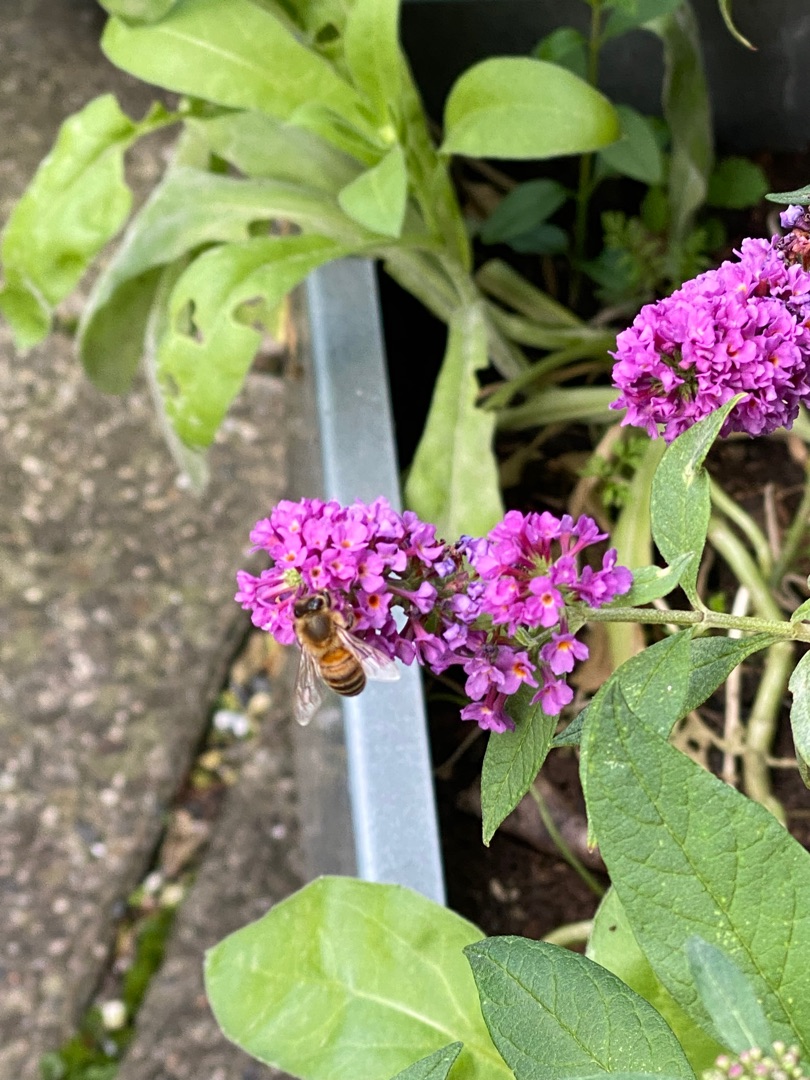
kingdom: Animalia
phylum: Arthropoda
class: Insecta
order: Hymenoptera
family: Apidae
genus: Apis
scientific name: Apis mellifera
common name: Honningbi
